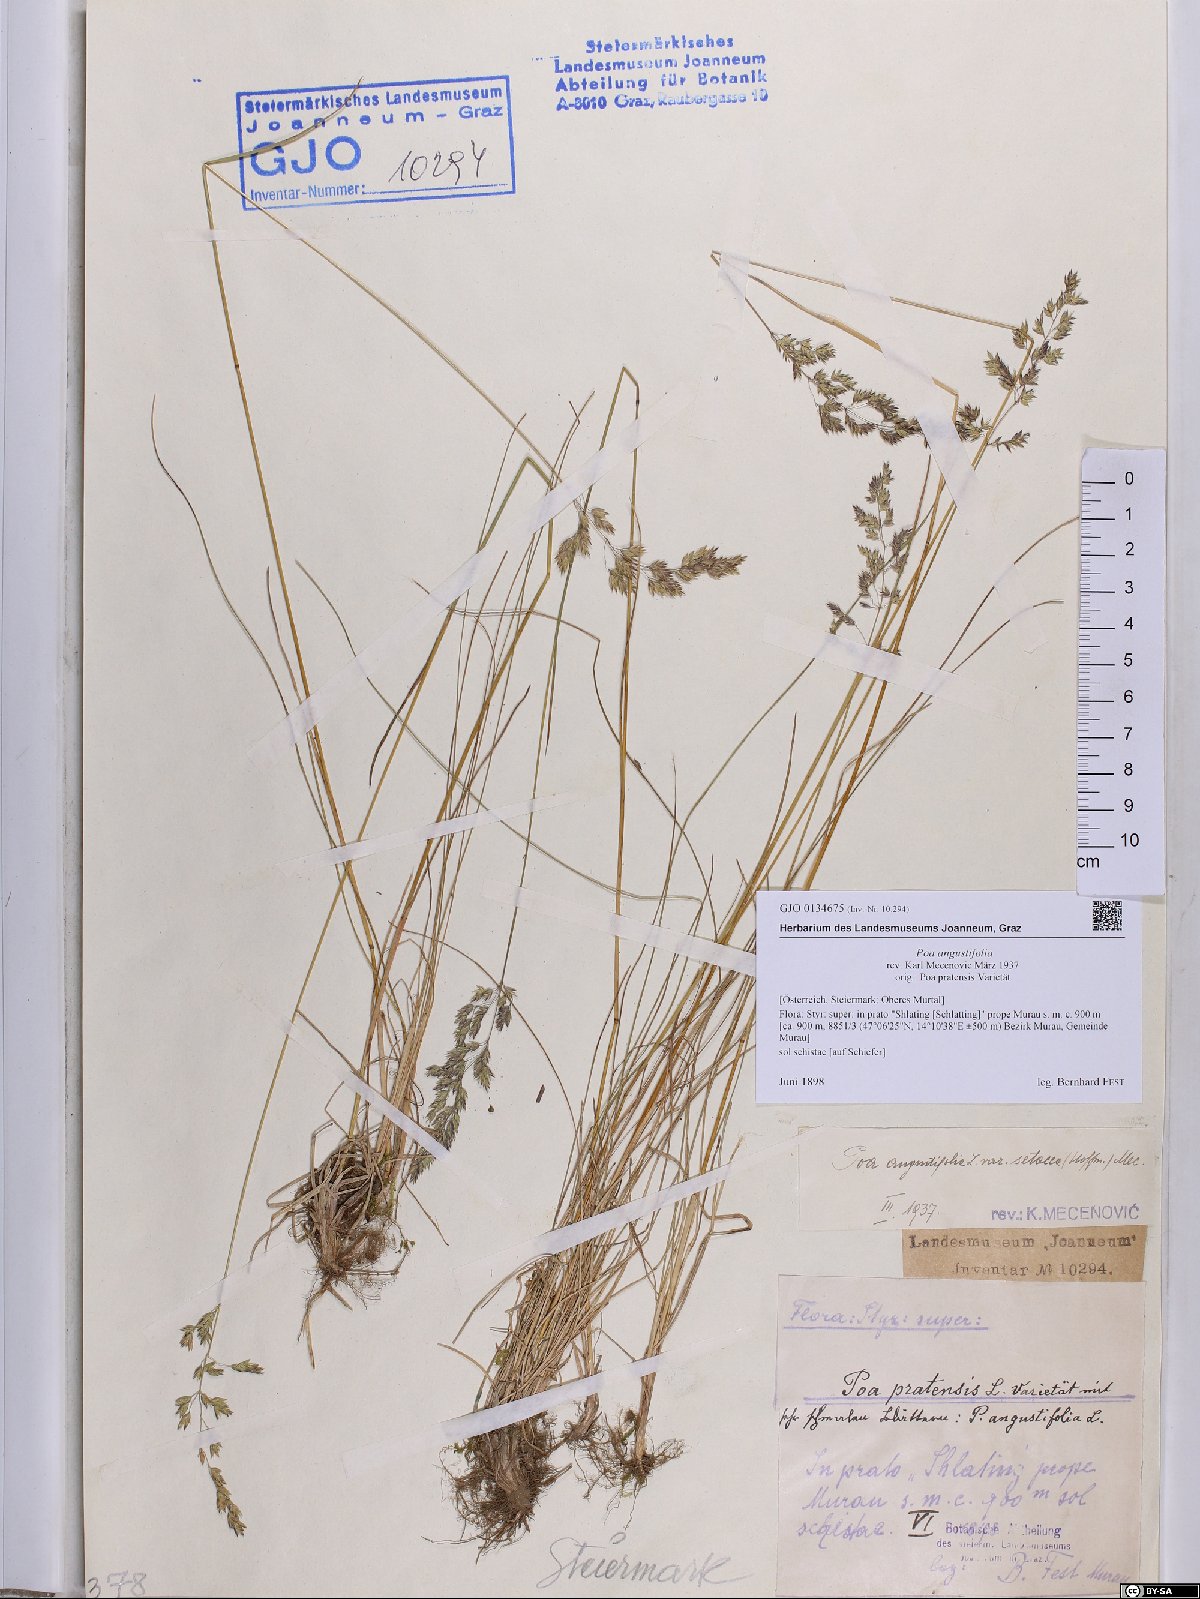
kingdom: Plantae
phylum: Tracheophyta
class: Liliopsida
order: Poales
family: Poaceae
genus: Poa
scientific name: Poa angustifolia
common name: Narrow-leaved meadow-grass
